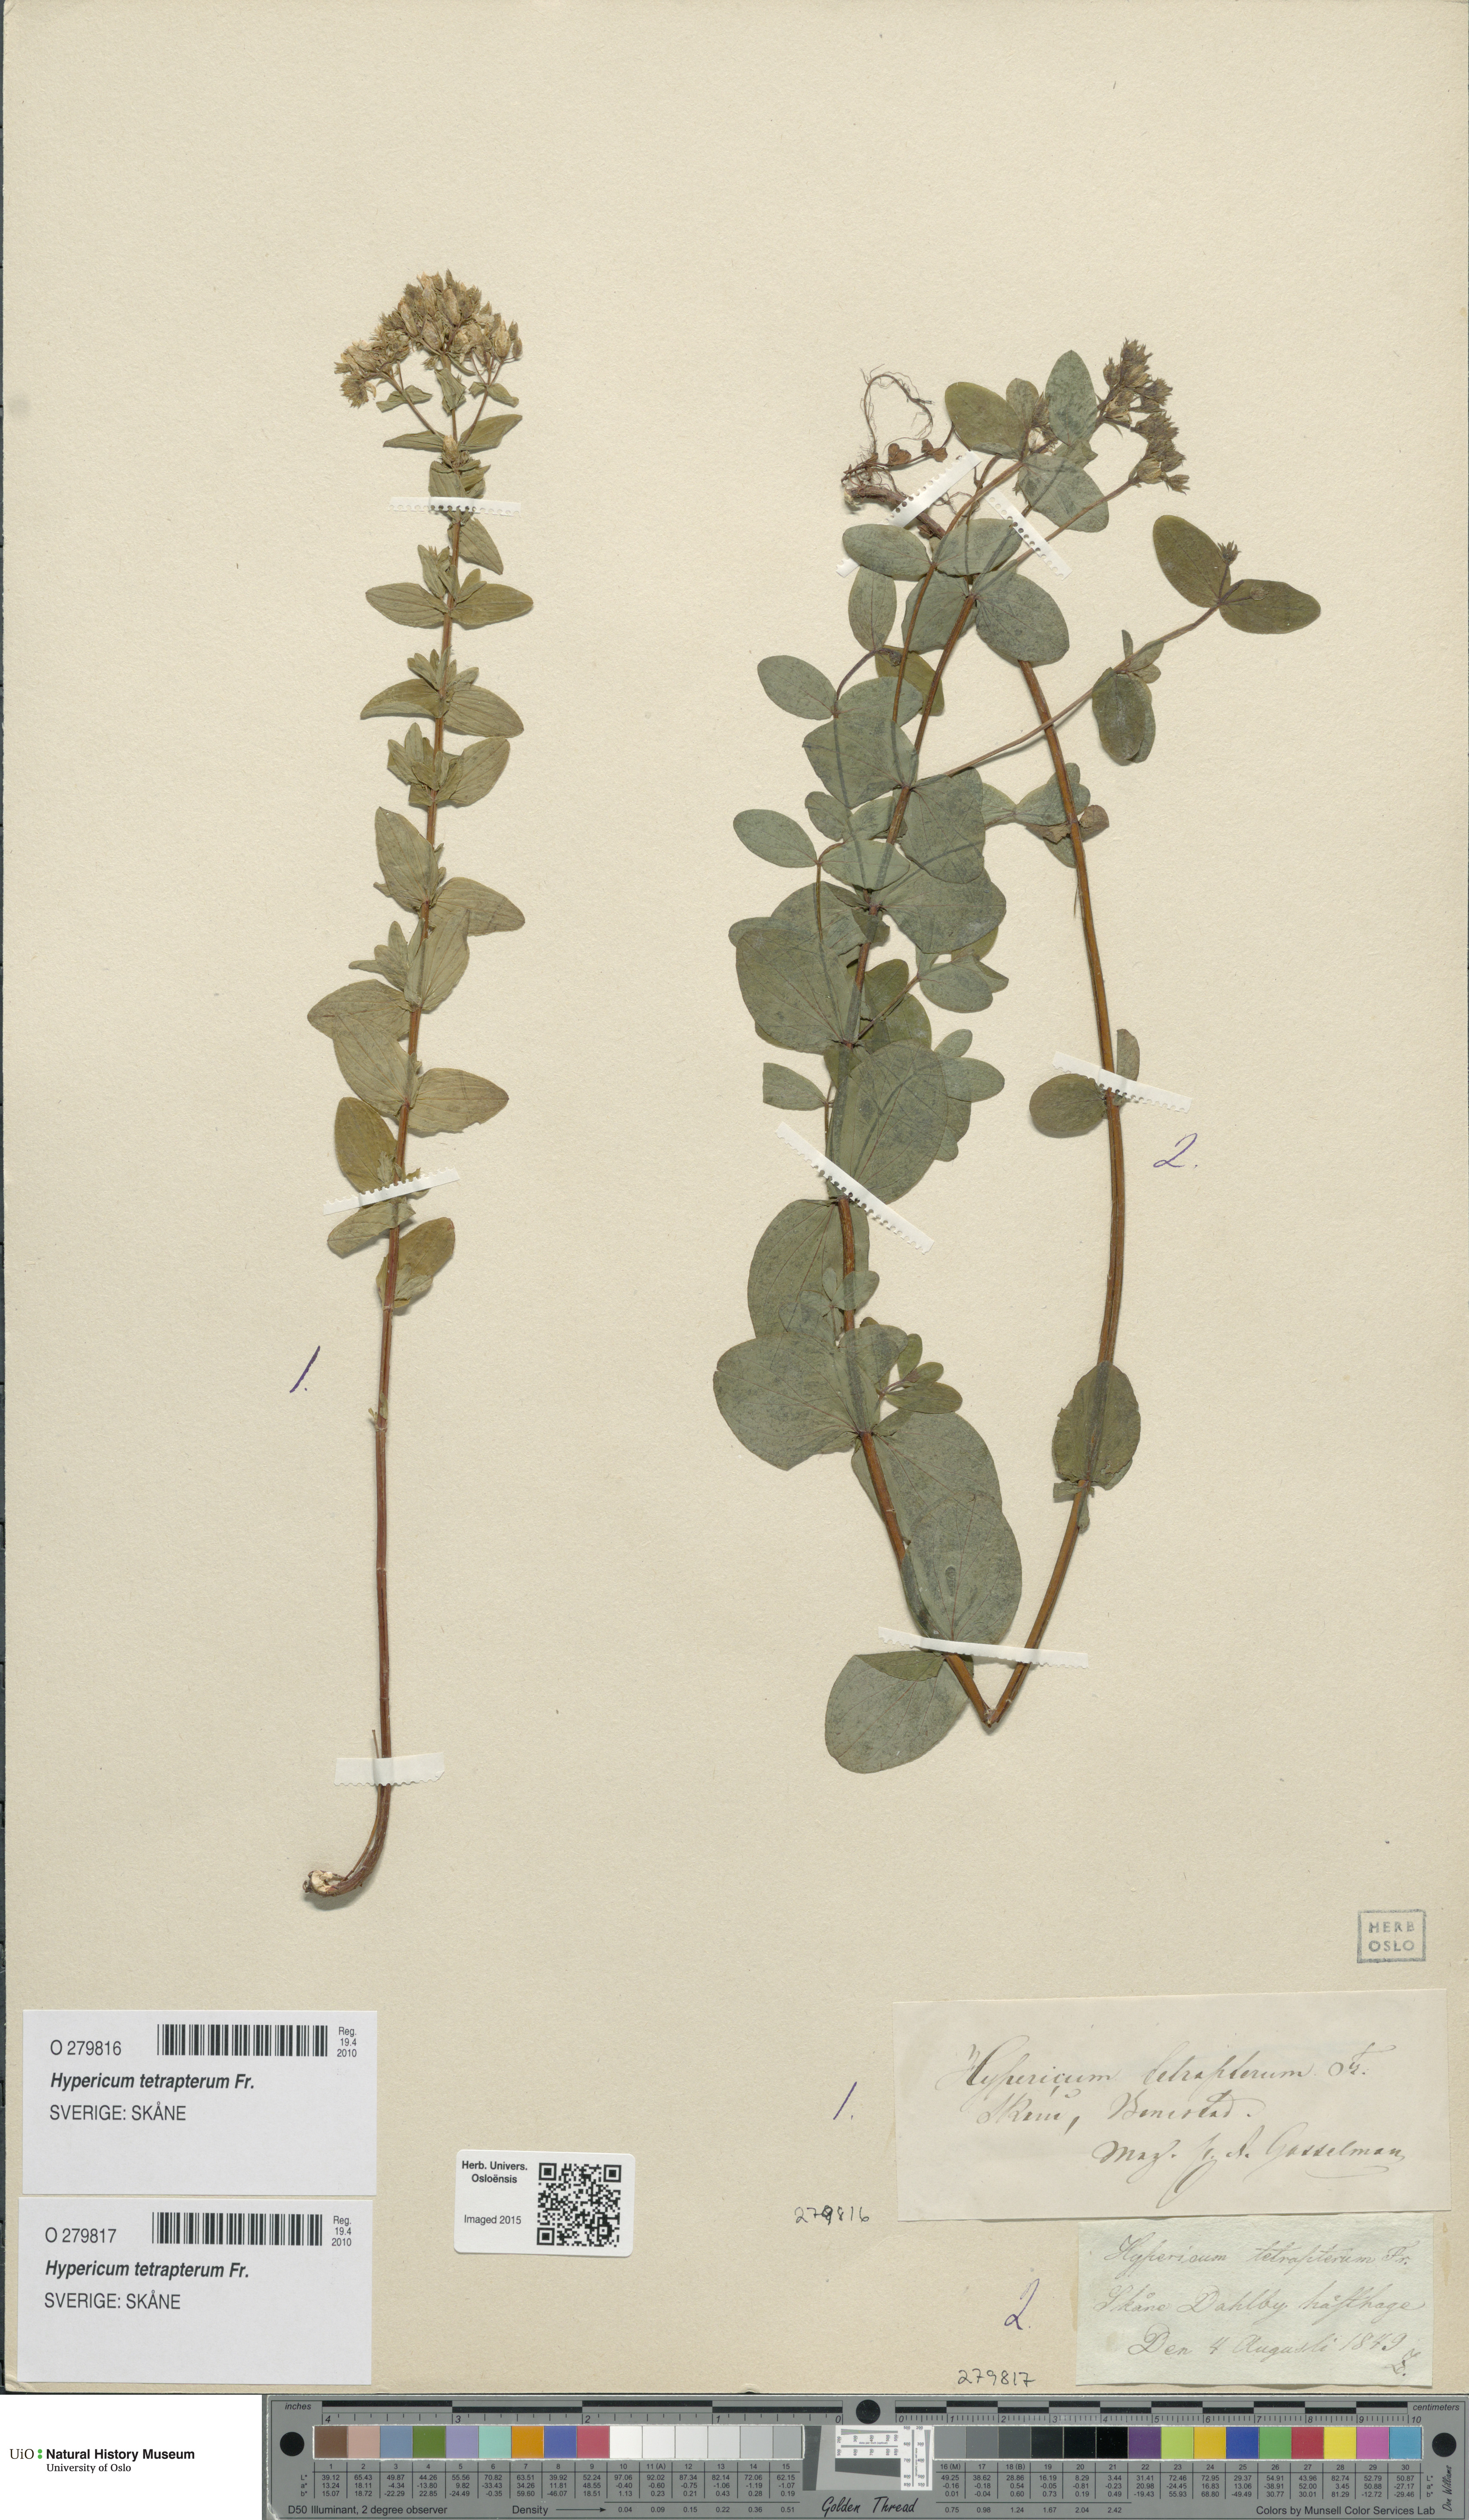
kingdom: Plantae
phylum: Tracheophyta
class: Magnoliopsida
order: Malpighiales
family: Hypericaceae
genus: Hypericum
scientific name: Hypericum tetrapterum
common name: Square-stalked st. john's-wort
